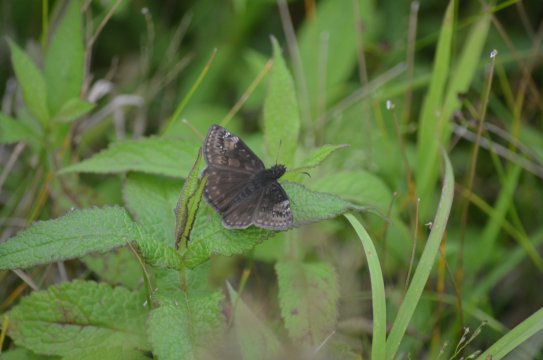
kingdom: Animalia
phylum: Arthropoda
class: Insecta
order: Lepidoptera
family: Hesperiidae
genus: Gesta
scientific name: Gesta
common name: Wild Indigo Duskywing
